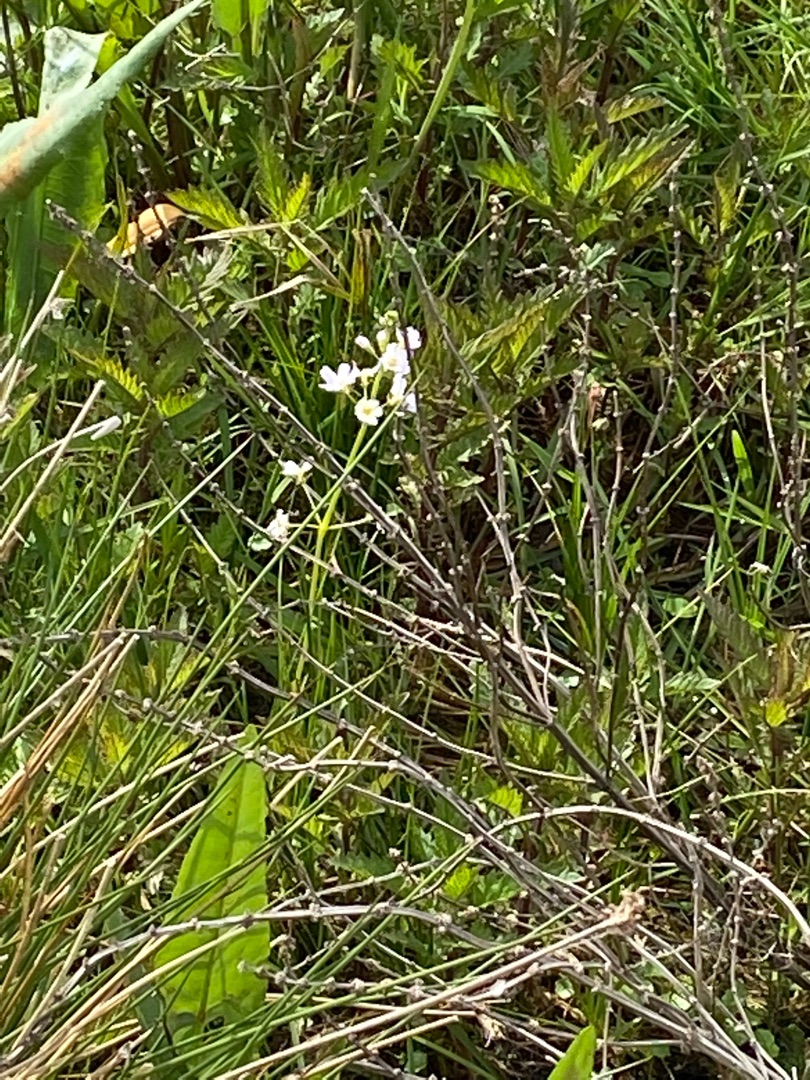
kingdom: Plantae
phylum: Tracheophyta
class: Magnoliopsida
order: Ericales
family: Primulaceae
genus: Hottonia
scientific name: Hottonia palustris
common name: Vandrøllike
